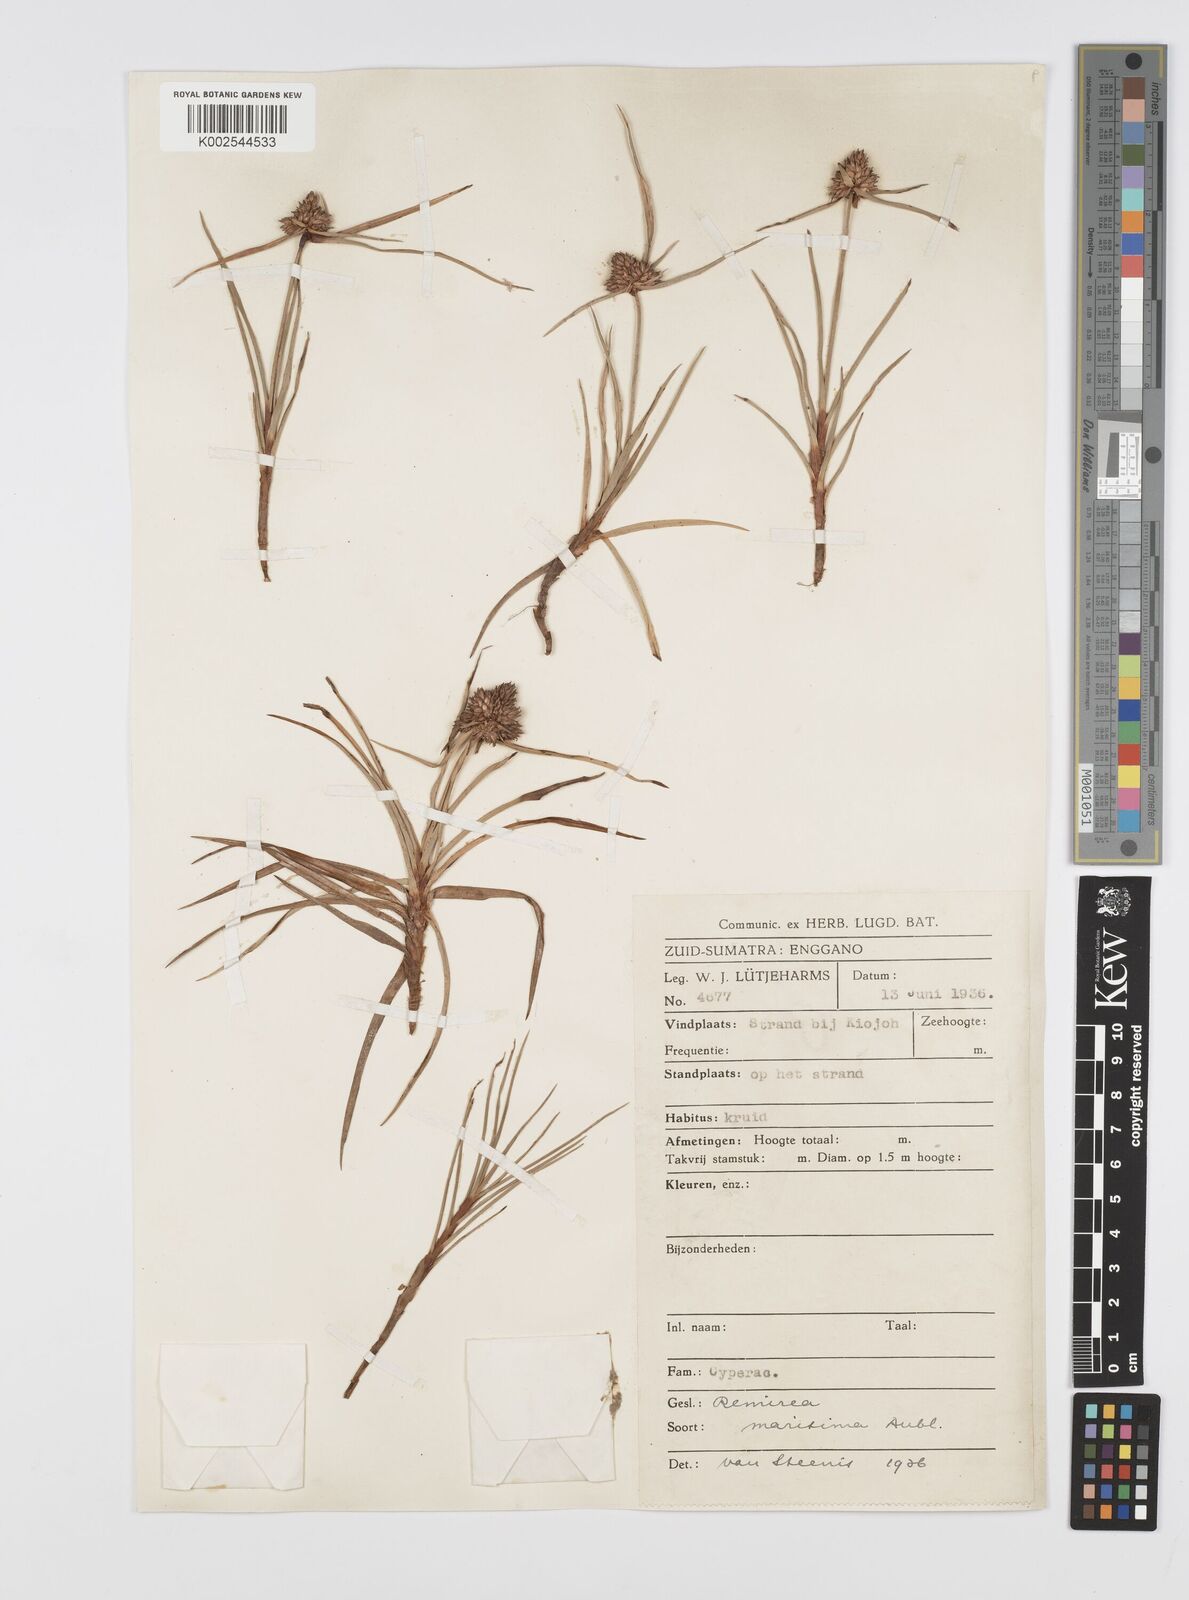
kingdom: Plantae
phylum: Tracheophyta
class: Liliopsida
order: Poales
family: Cyperaceae
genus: Cyperus
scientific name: Cyperus
